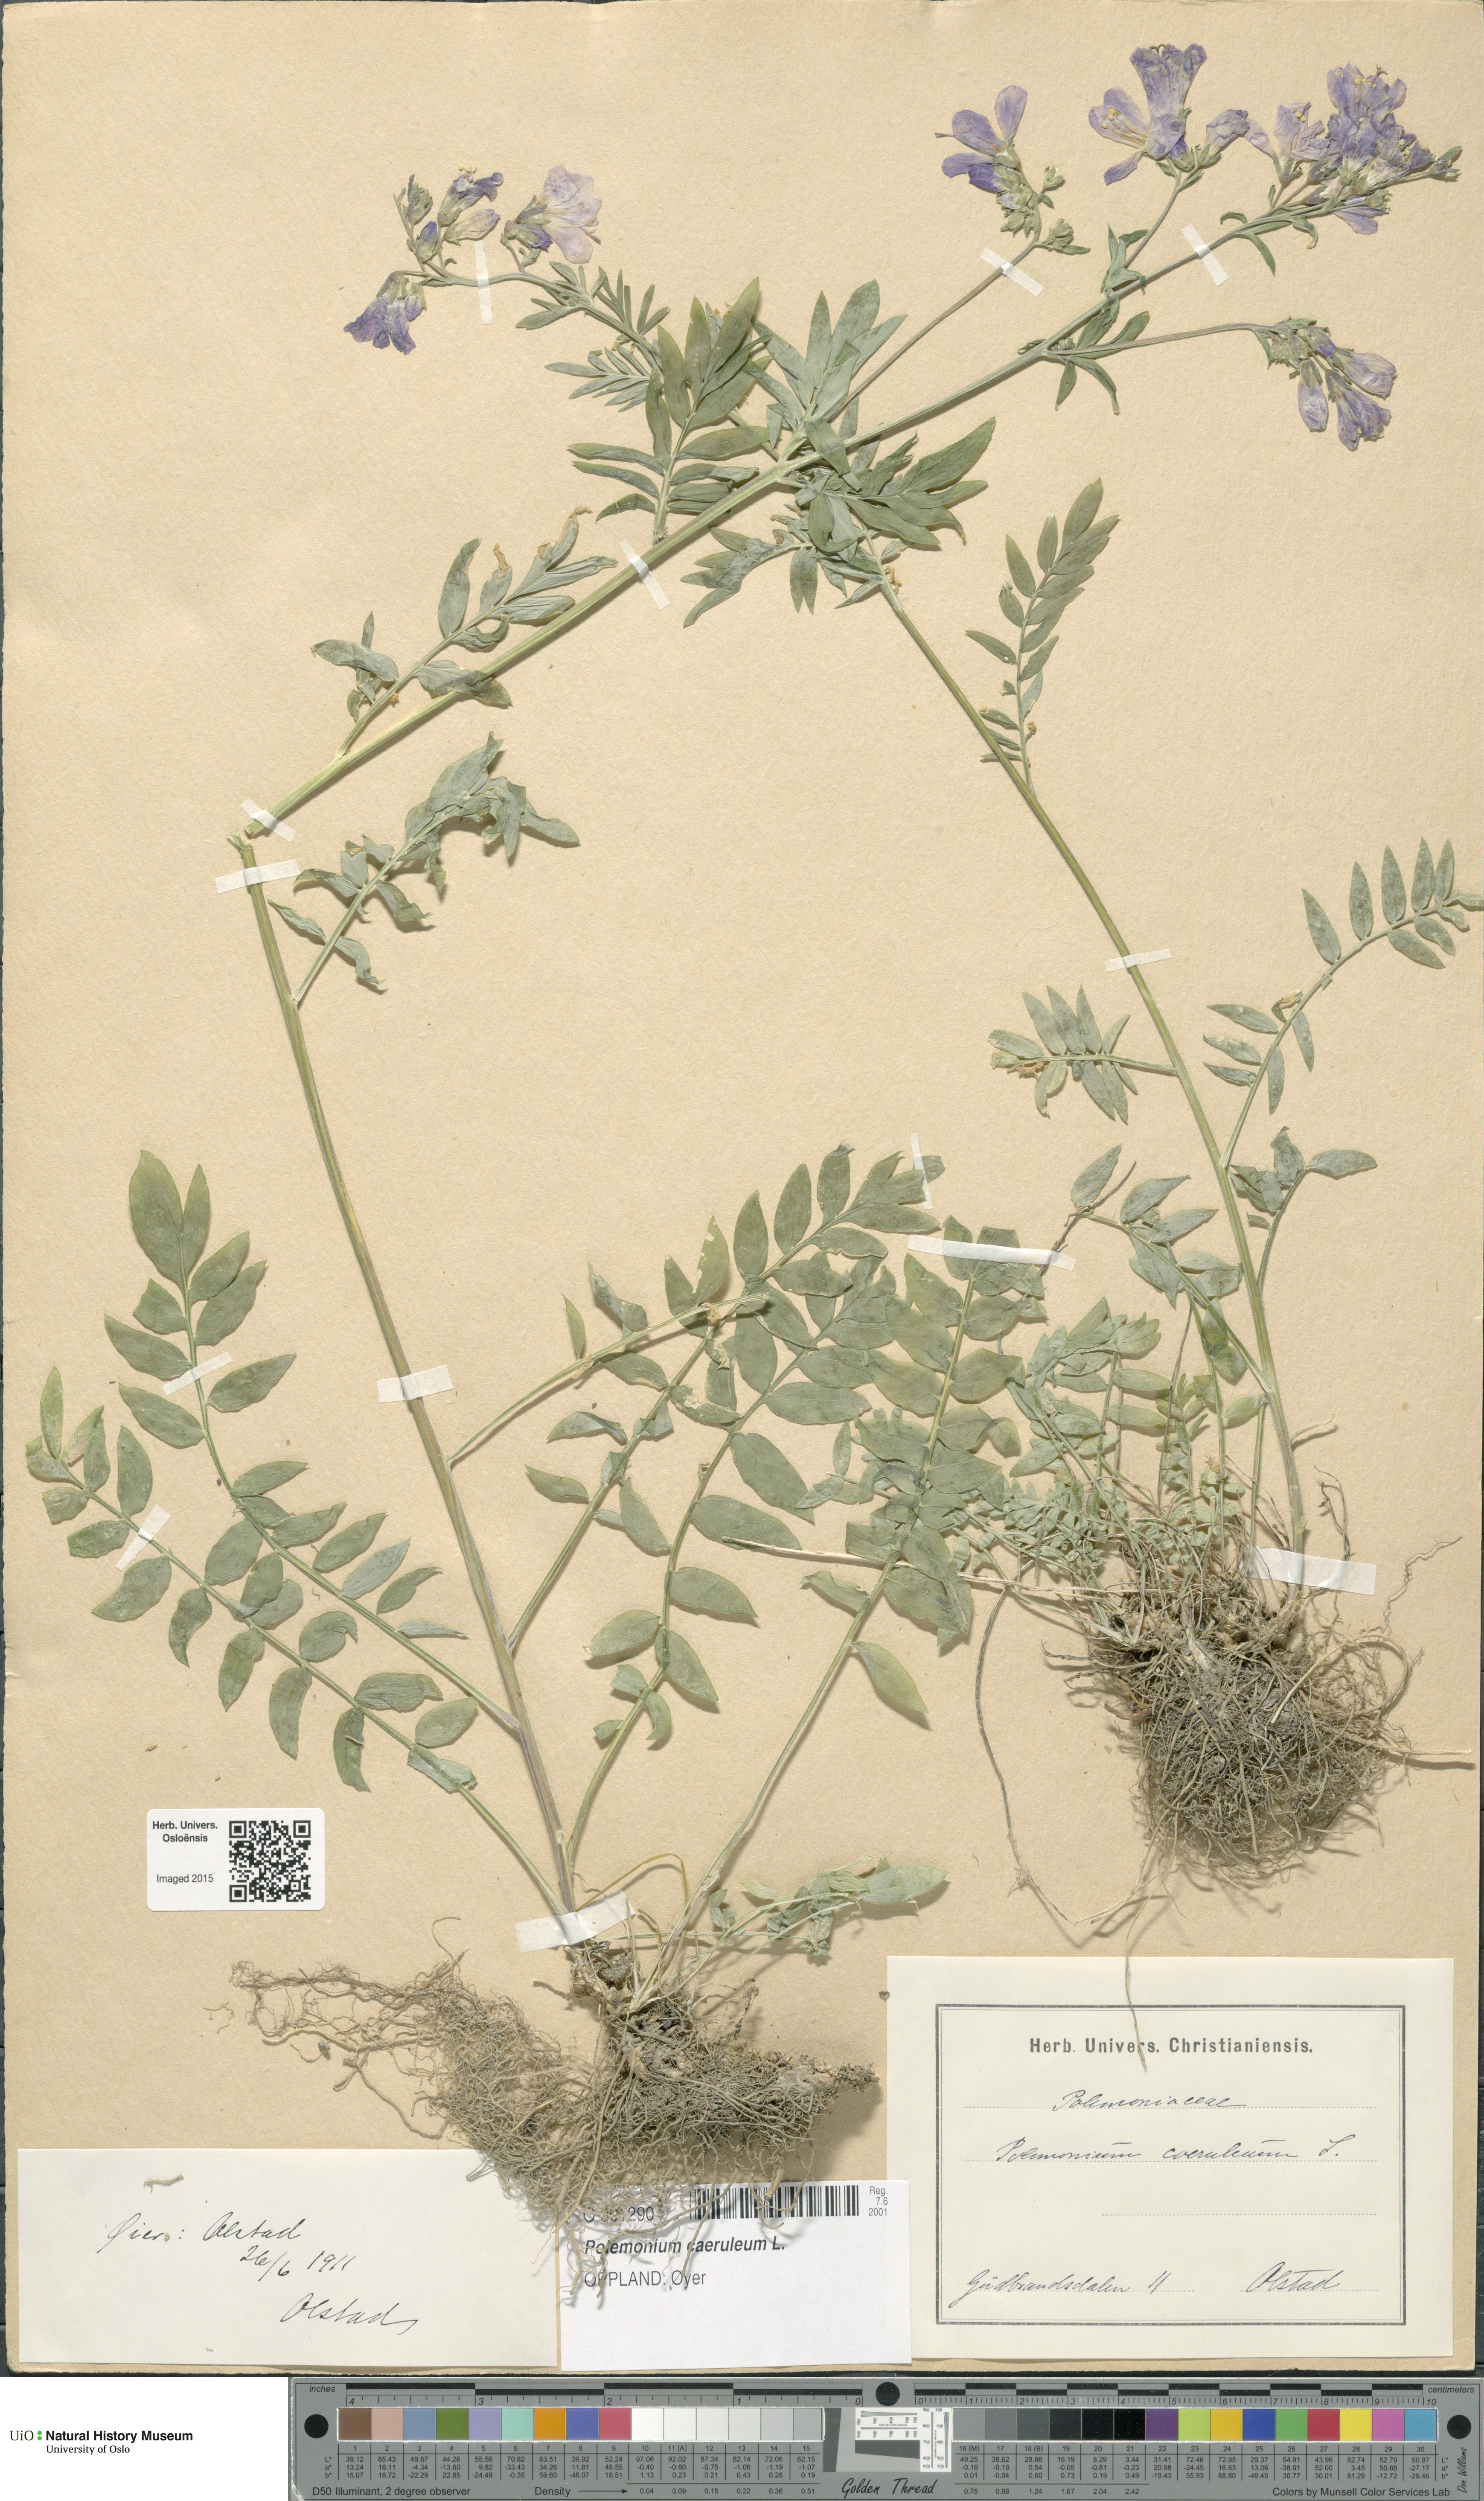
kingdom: Plantae
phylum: Tracheophyta
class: Magnoliopsida
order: Ericales
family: Polemoniaceae
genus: Polemonium
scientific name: Polemonium caeruleum
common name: Jacob's-ladder
